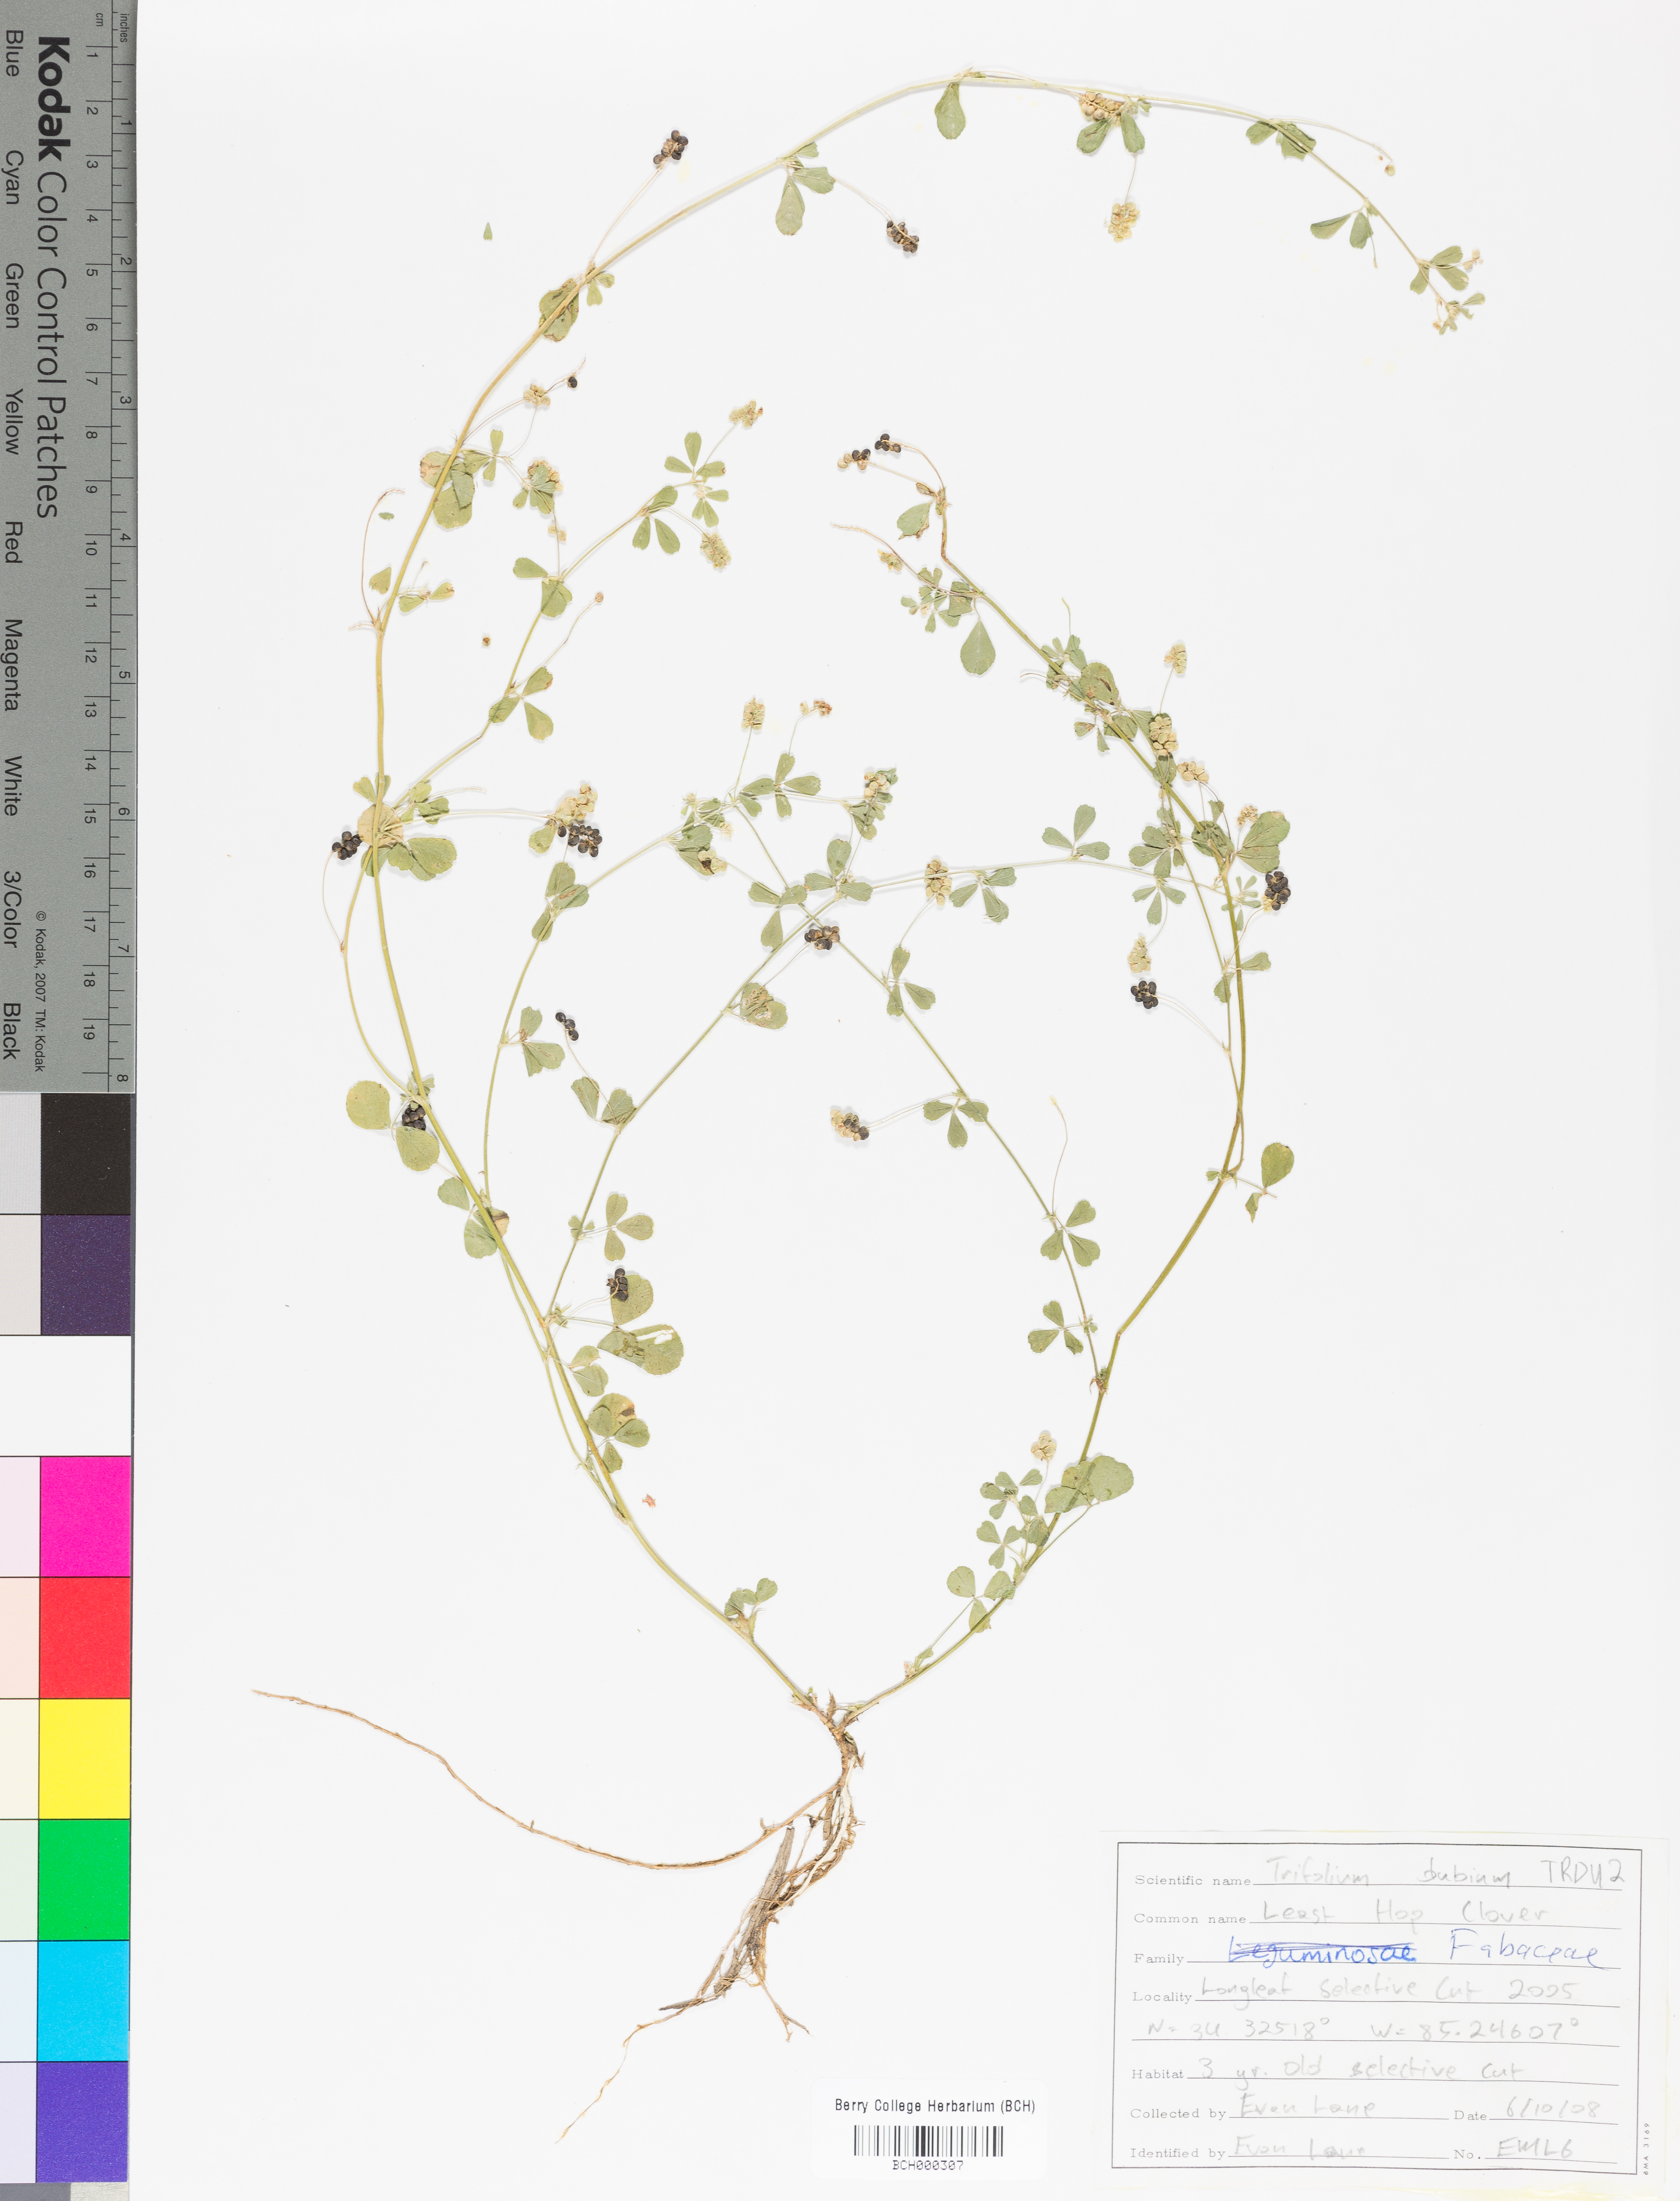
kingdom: Plantae
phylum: Tracheophyta
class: Magnoliopsida
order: Fabales
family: Fabaceae
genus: Trifolium
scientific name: Trifolium dubium
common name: Suckling clover
